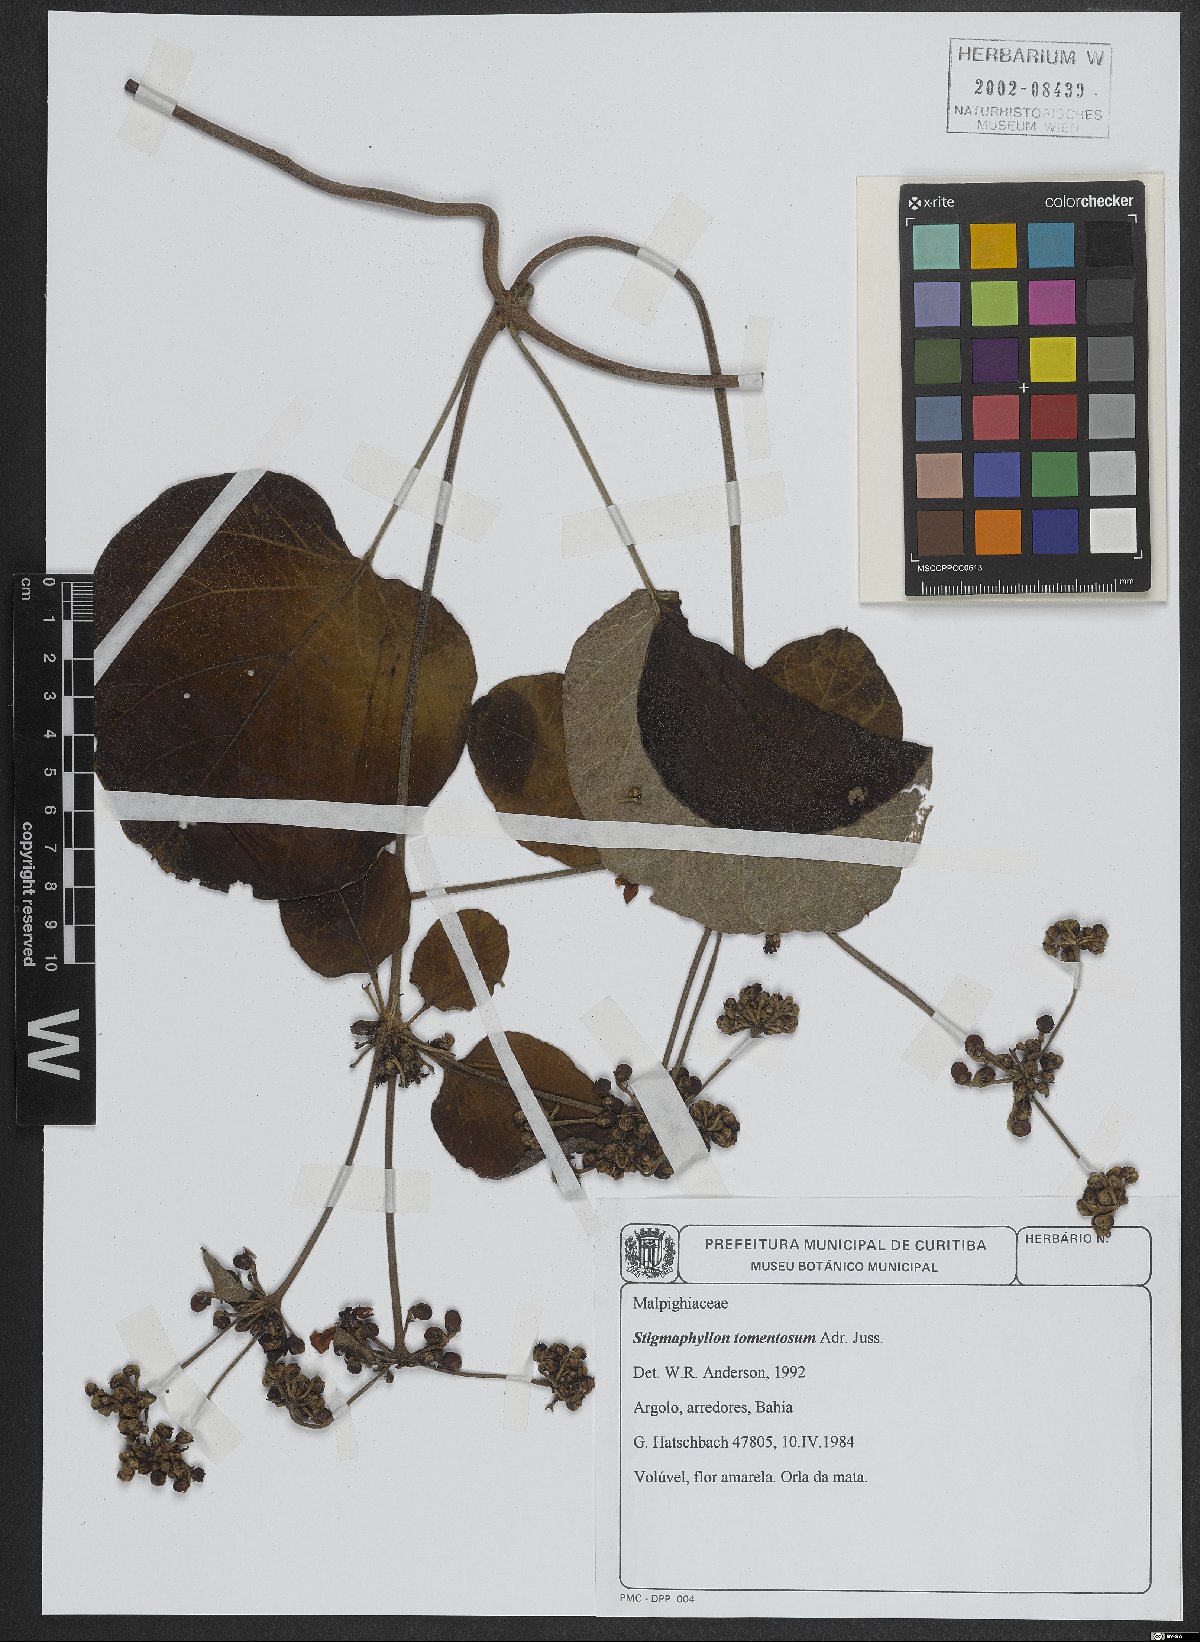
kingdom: Plantae
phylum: Tracheophyta
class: Magnoliopsida
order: Malpighiales
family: Malpighiaceae
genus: Stigmaphyllon
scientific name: Stigmaphyllon tomentosum
